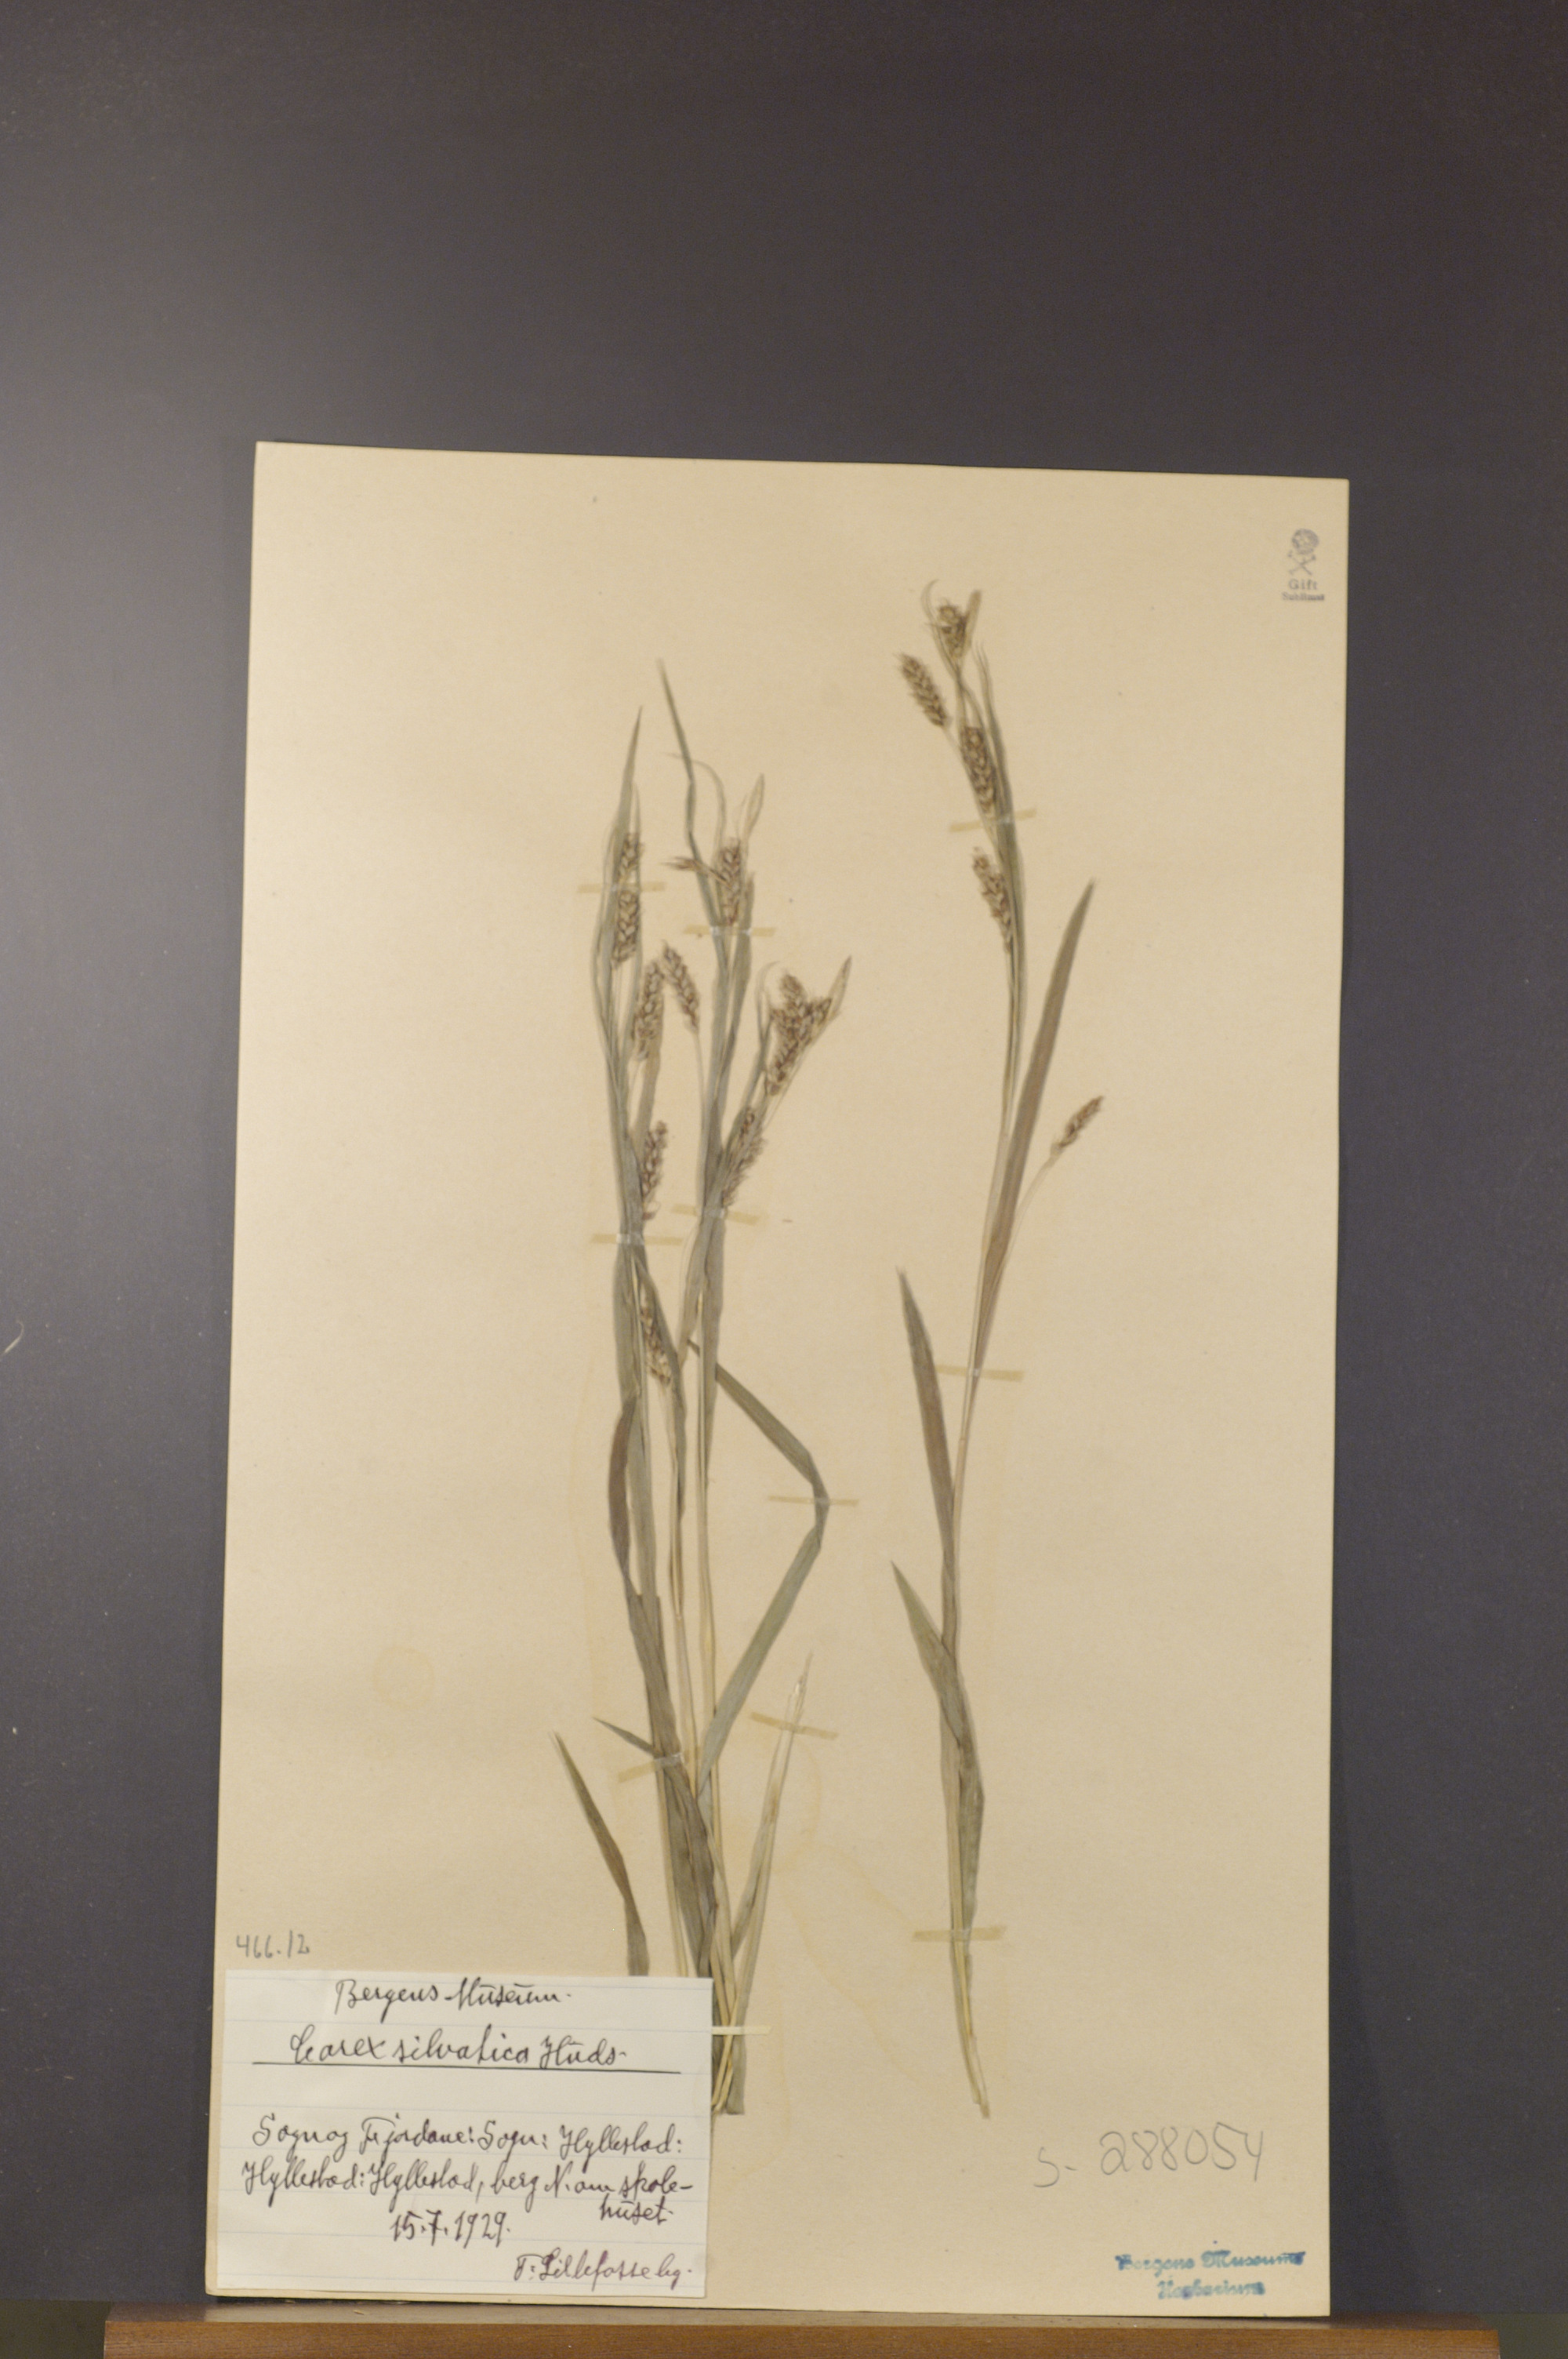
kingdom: Plantae
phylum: Tracheophyta
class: Liliopsida
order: Poales
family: Cyperaceae
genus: Carex
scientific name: Carex sylvatica
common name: Wood-sedge
